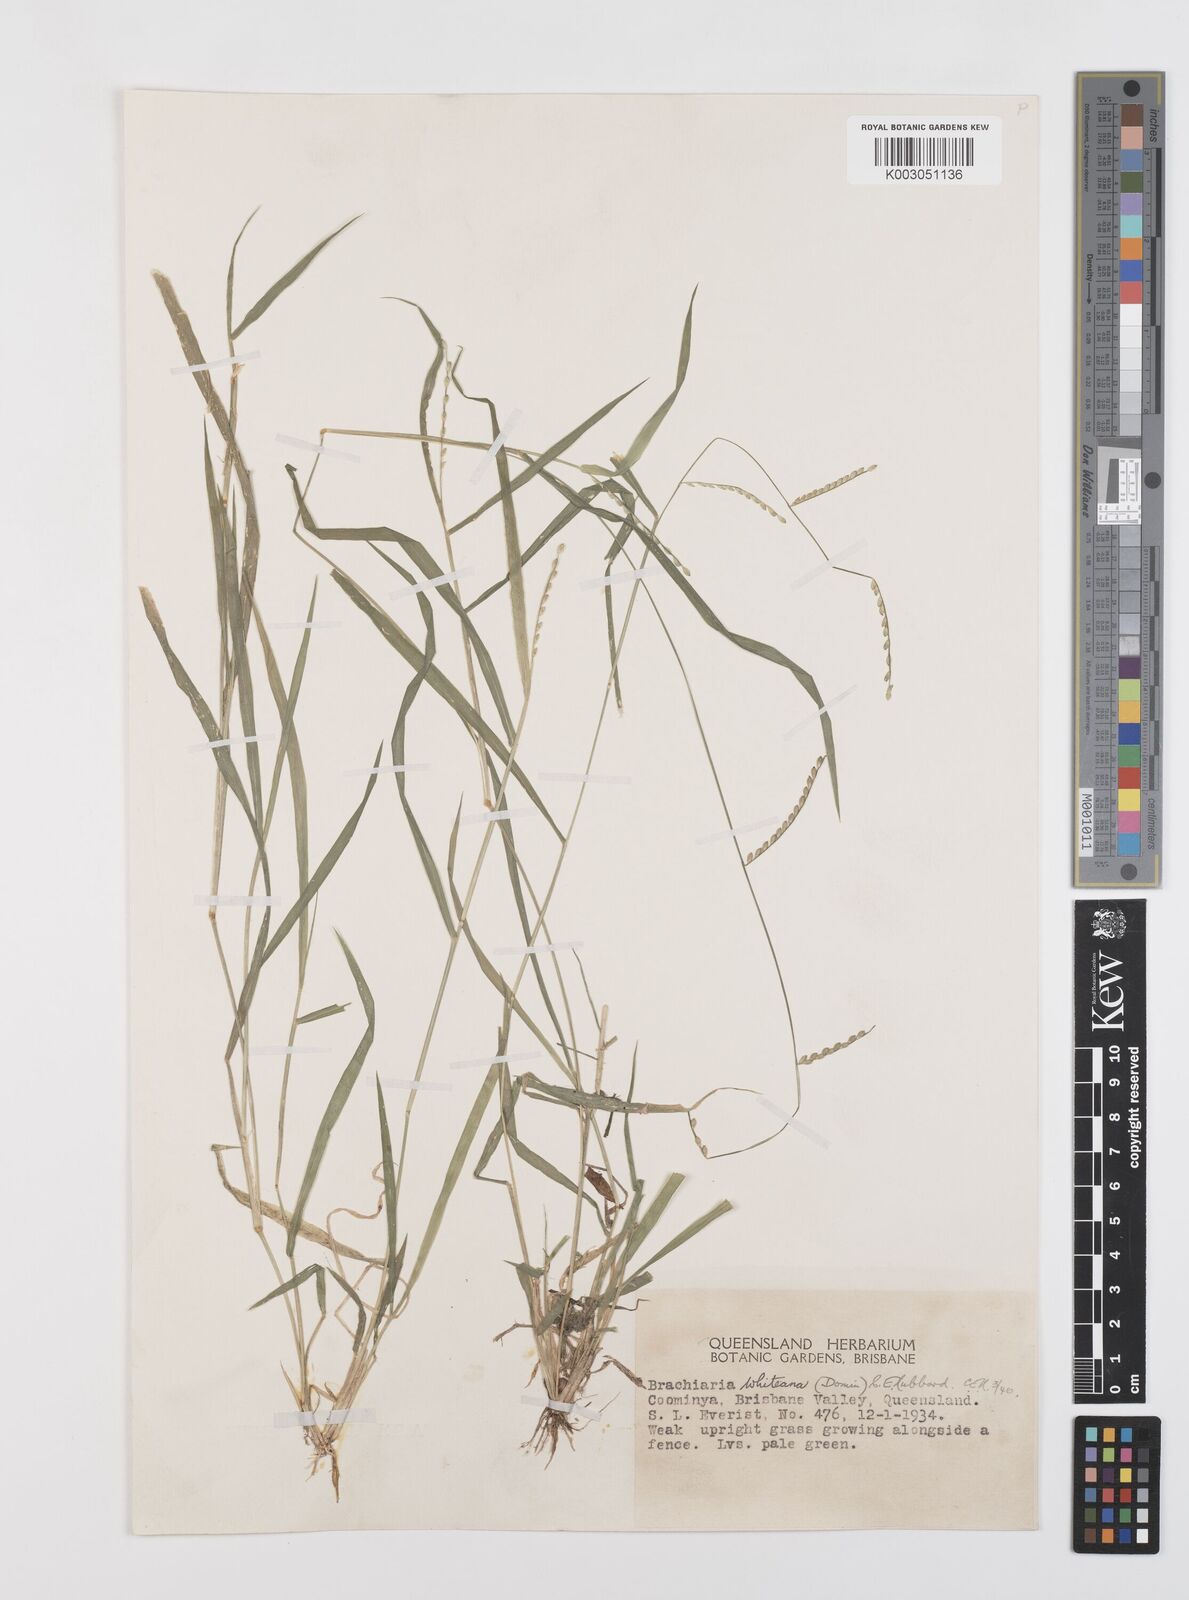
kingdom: Plantae
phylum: Tracheophyta
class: Liliopsida
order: Poales
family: Poaceae
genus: Urochloa
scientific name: Urochloa whiteana
